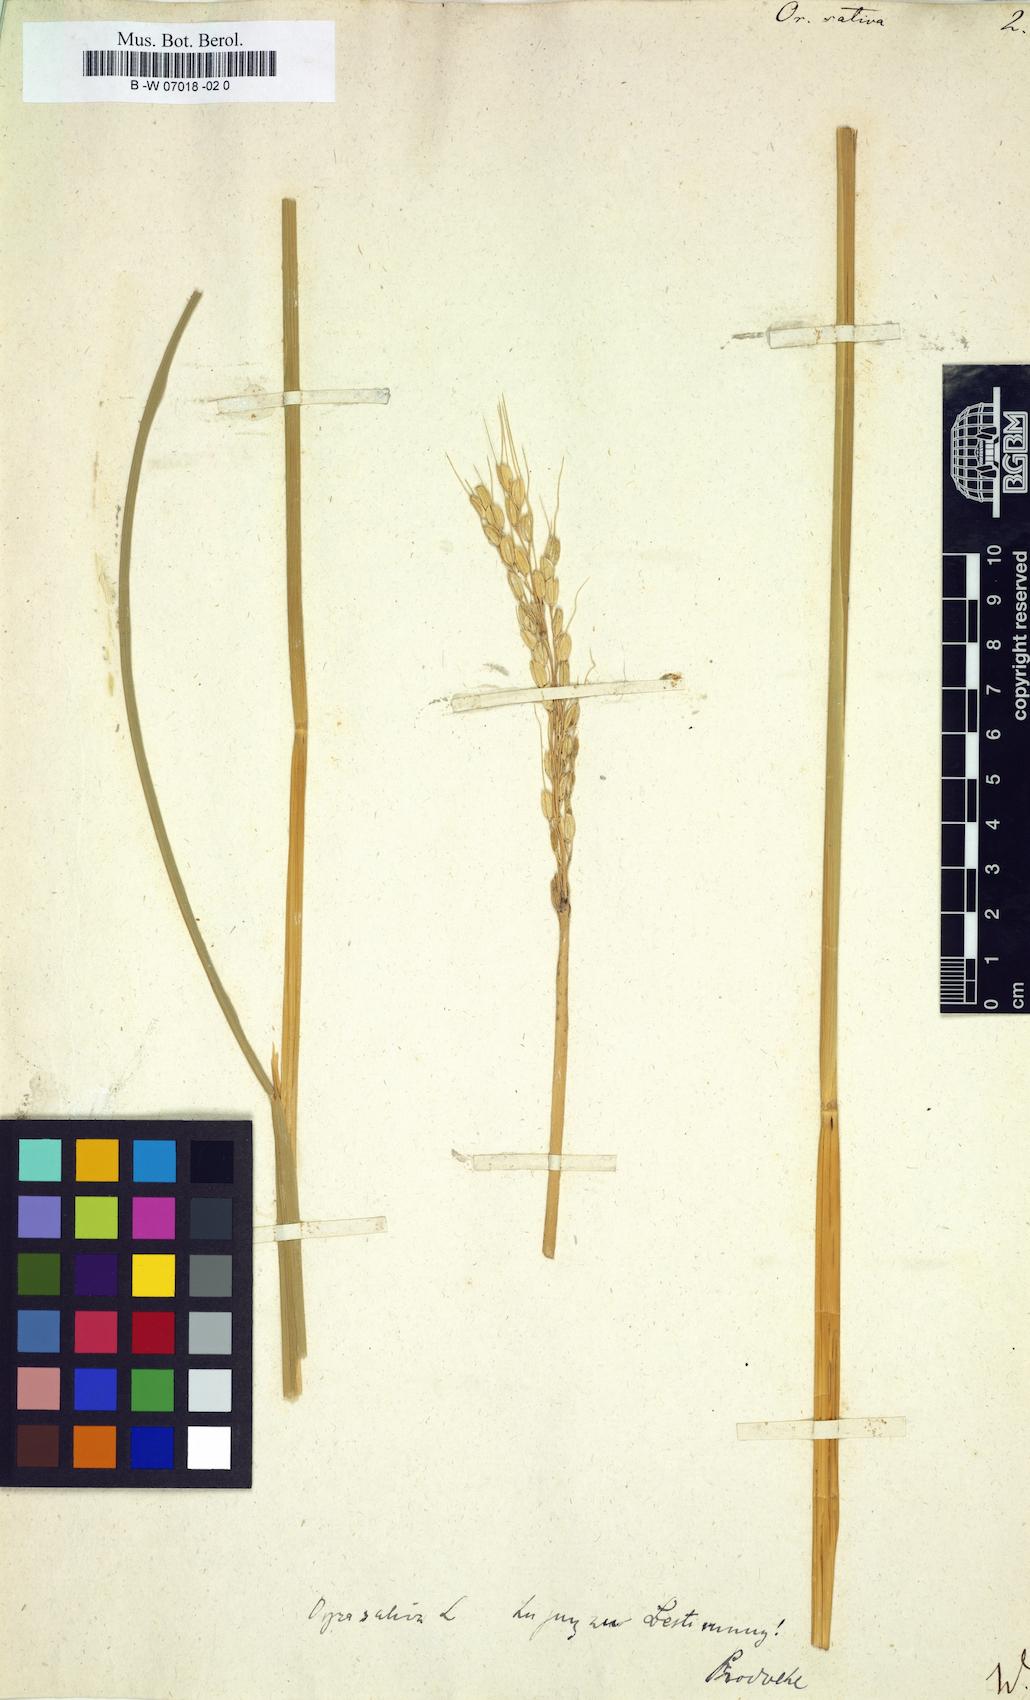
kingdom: Plantae
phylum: Tracheophyta
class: Liliopsida
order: Poales
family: Poaceae
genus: Oryza
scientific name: Oryza sativa
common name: Rice
